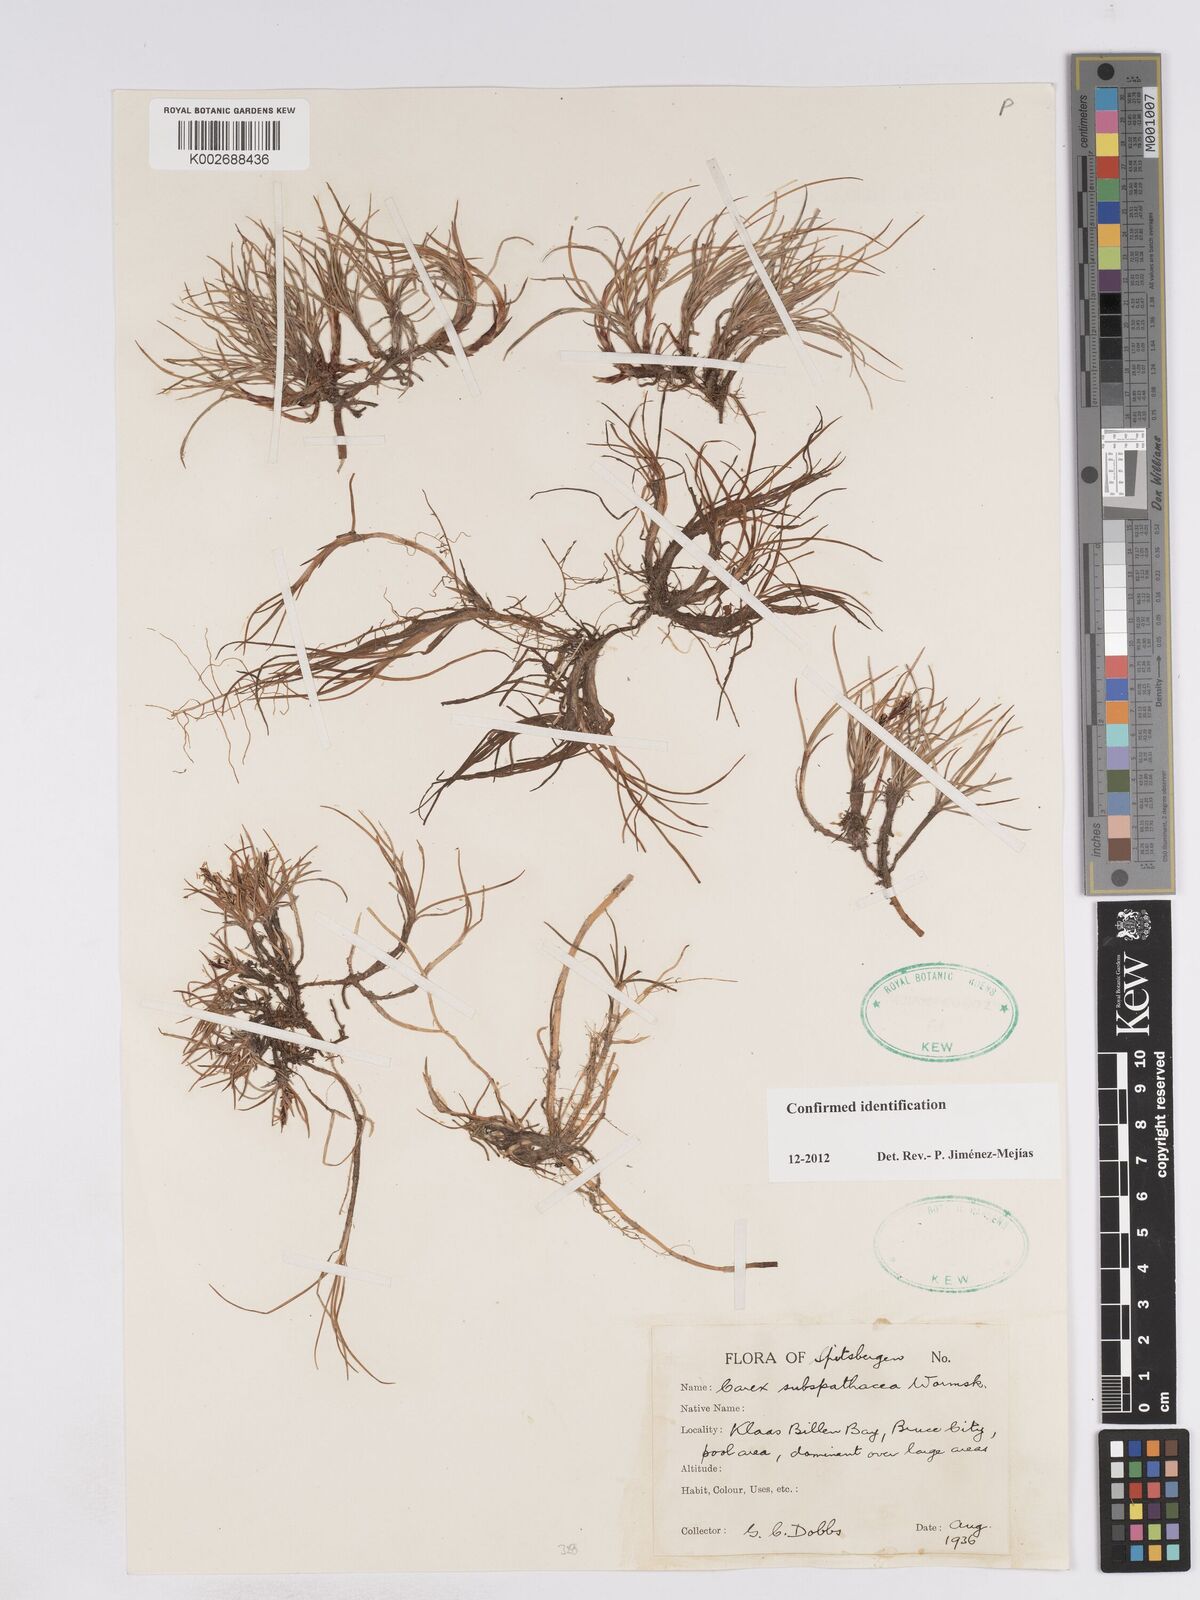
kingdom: Plantae
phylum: Tracheophyta
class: Liliopsida
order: Poales
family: Cyperaceae
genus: Carex
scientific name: Carex subspathacea
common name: Hoppner's sedge
